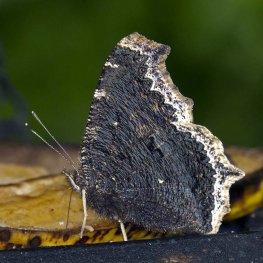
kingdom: Animalia
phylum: Arthropoda
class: Insecta
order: Lepidoptera
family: Nymphalidae
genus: Nymphalis
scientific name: Nymphalis antiopa
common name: Mourning Cloak
